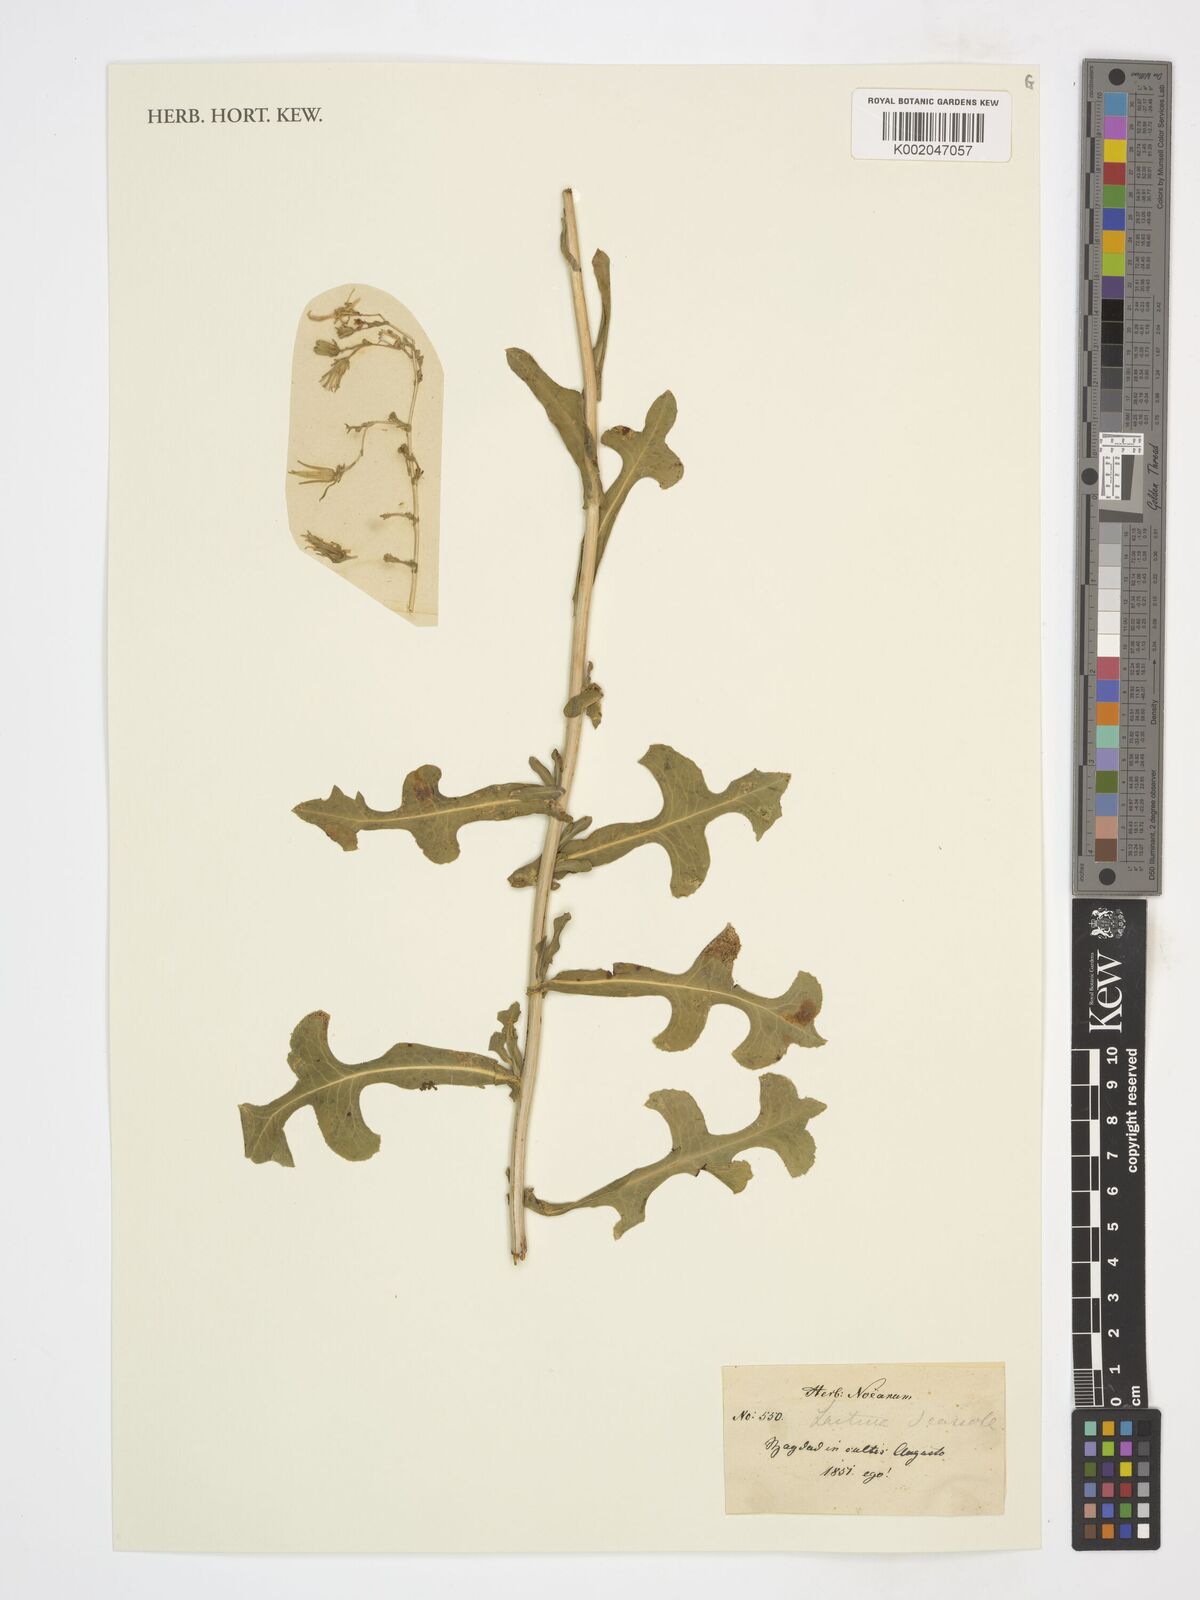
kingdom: Plantae
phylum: Tracheophyta
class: Magnoliopsida
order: Asterales
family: Asteraceae
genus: Lactuca
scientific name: Lactuca
